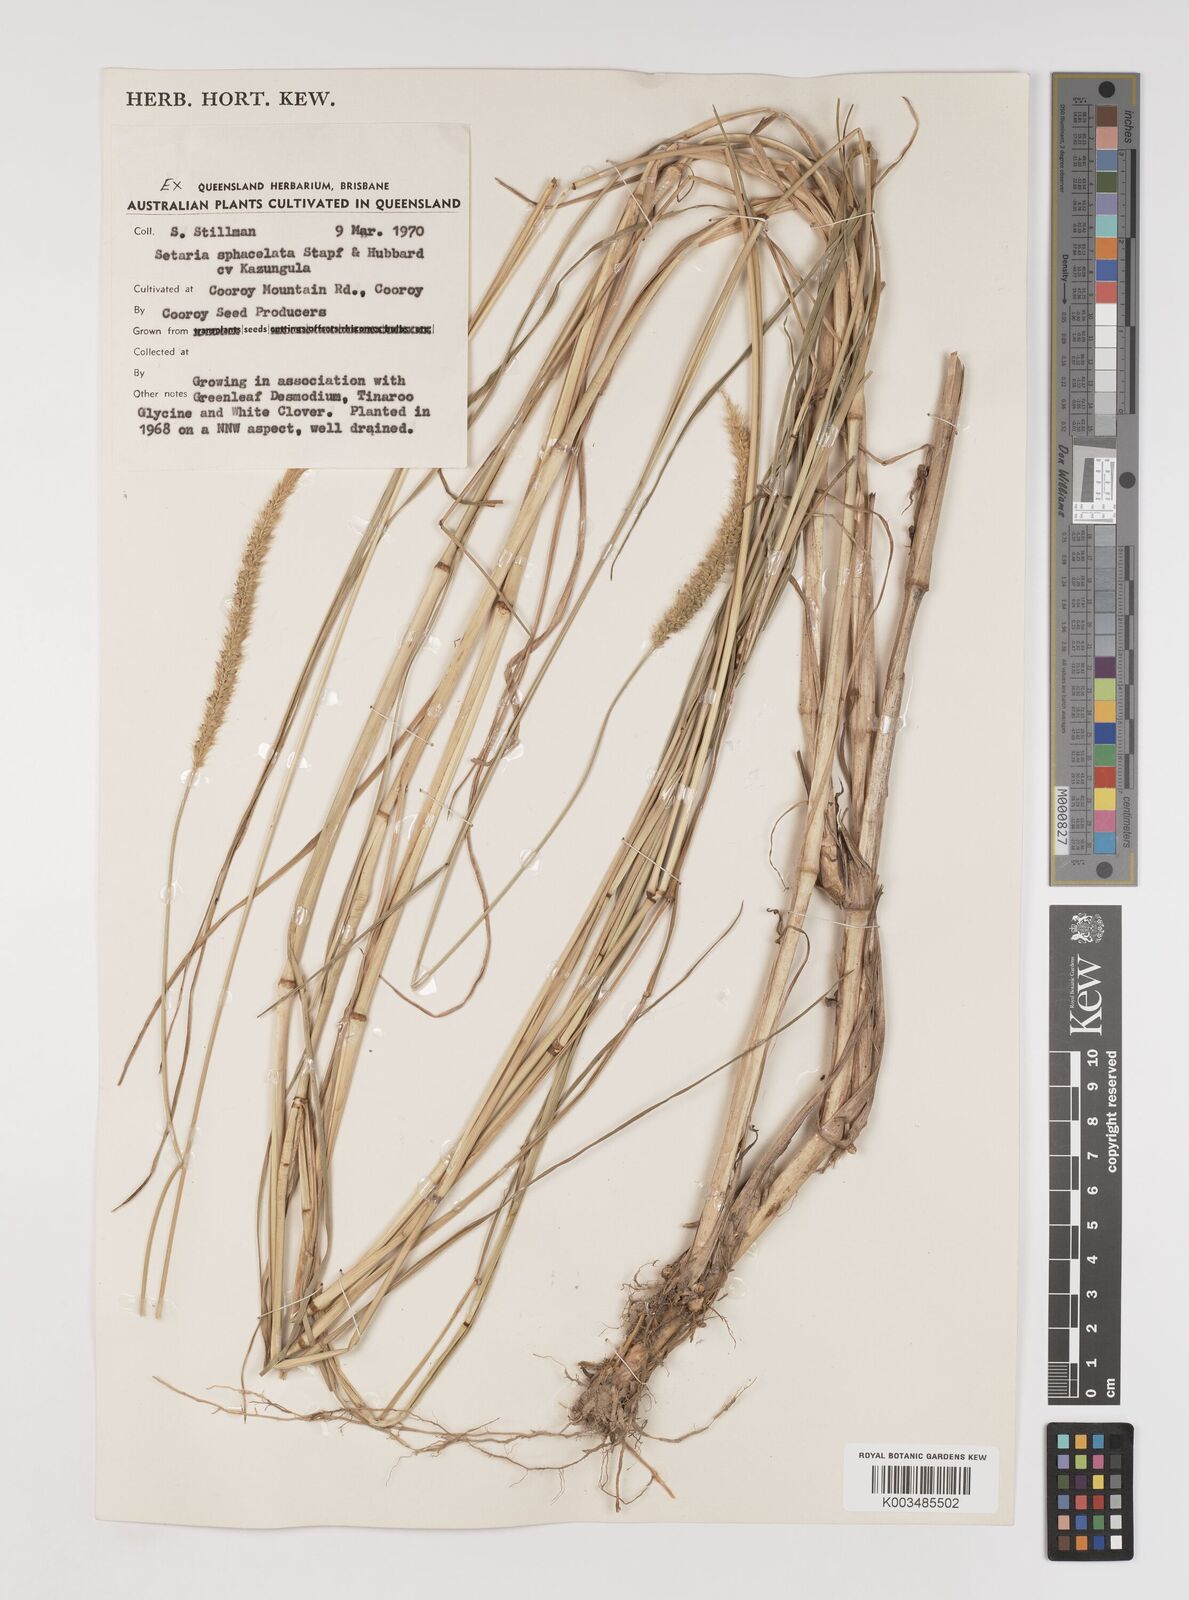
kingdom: Plantae
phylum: Tracheophyta
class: Liliopsida
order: Poales
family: Poaceae
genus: Setaria
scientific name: Setaria sphacelata
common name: African bristlegrass
